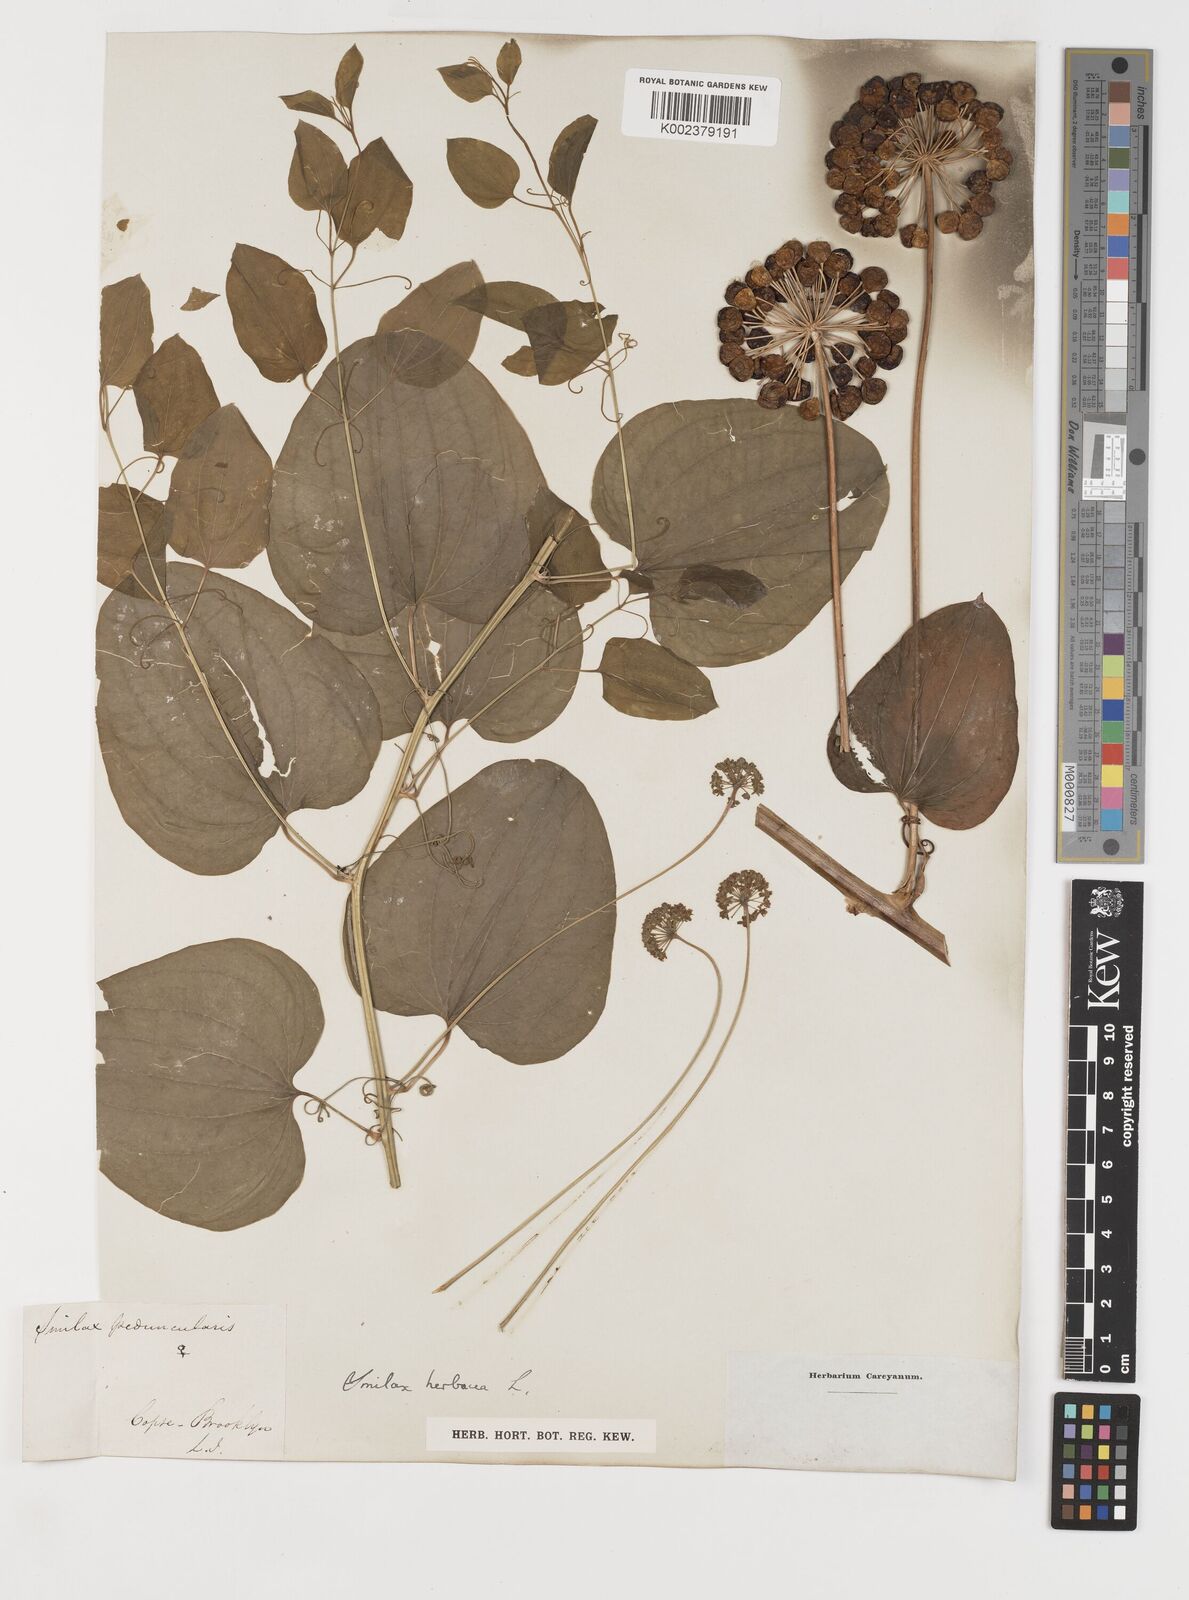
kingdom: Plantae
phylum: Tracheophyta
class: Liliopsida
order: Liliales
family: Smilacaceae
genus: Smilax
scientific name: Smilax
